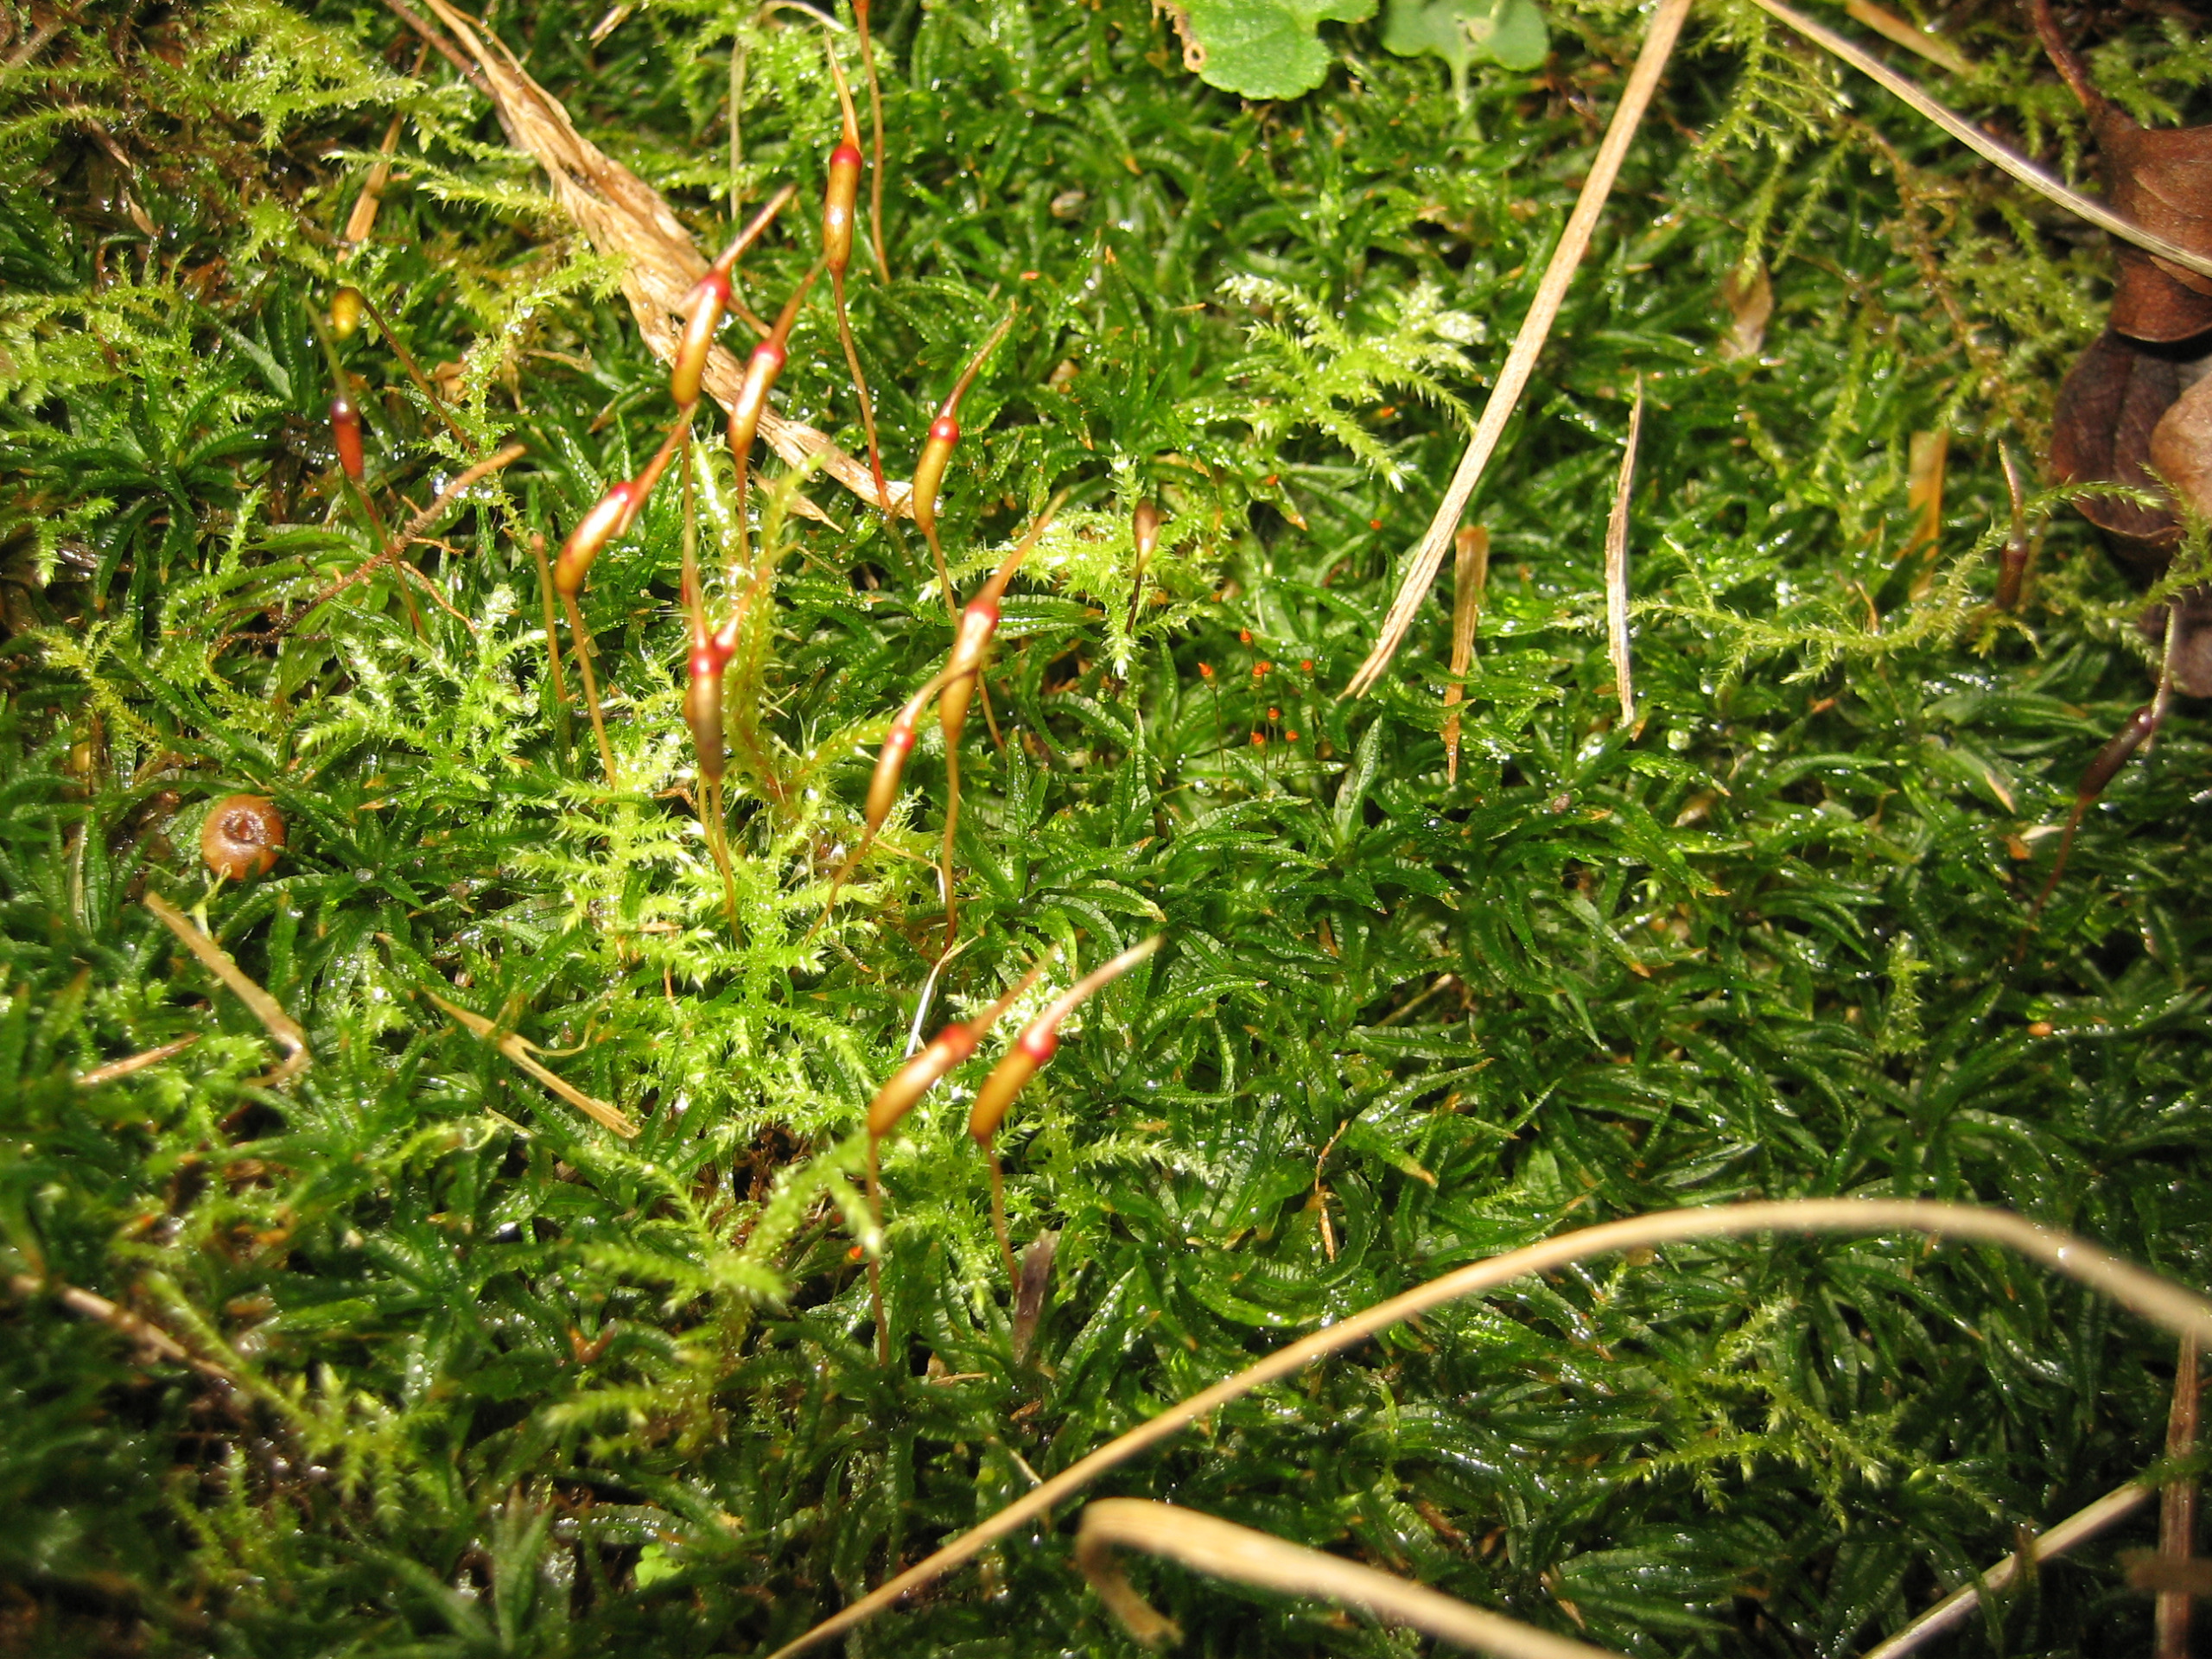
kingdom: Plantae
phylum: Bryophyta
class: Polytrichopsida
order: Polytrichales
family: Polytrichaceae
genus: Atrichum
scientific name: Atrichum undulatum
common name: Bølget katrinemos
